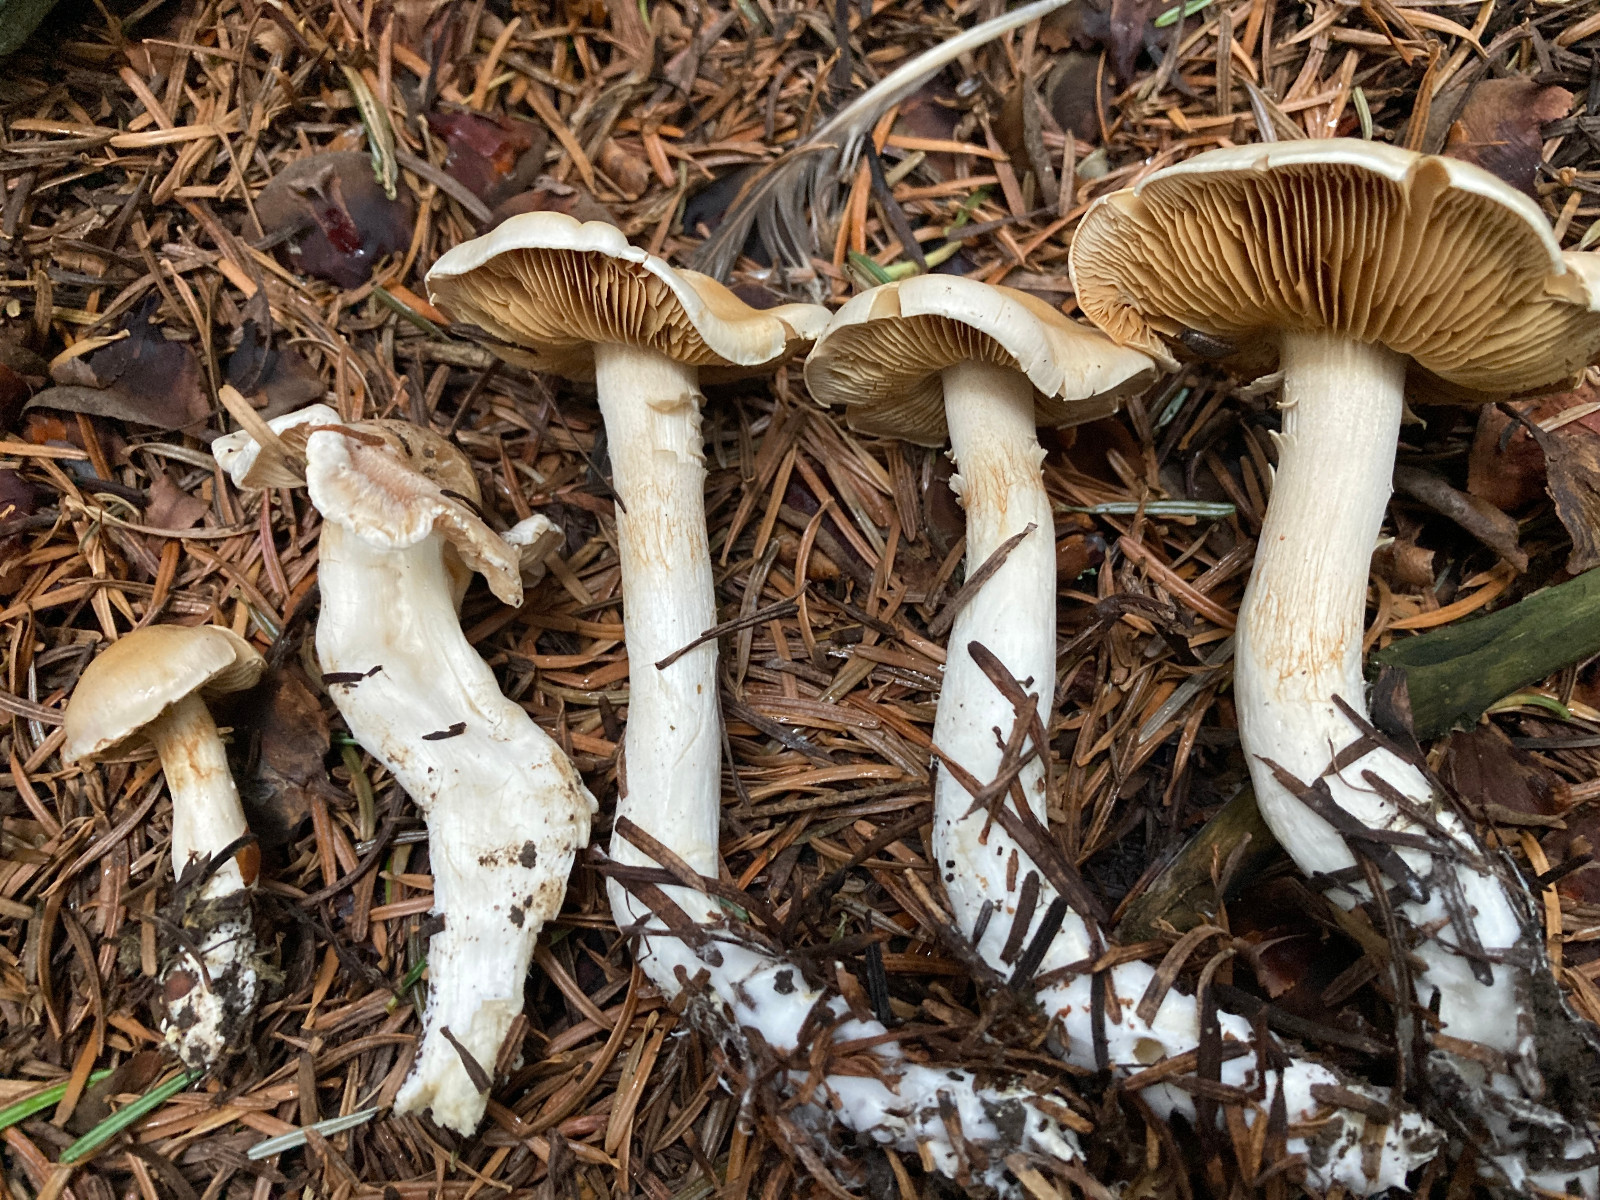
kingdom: Fungi
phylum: Basidiomycota
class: Agaricomycetes
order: Agaricales
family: Cortinariaceae
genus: Cortinarius
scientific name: Cortinarius
